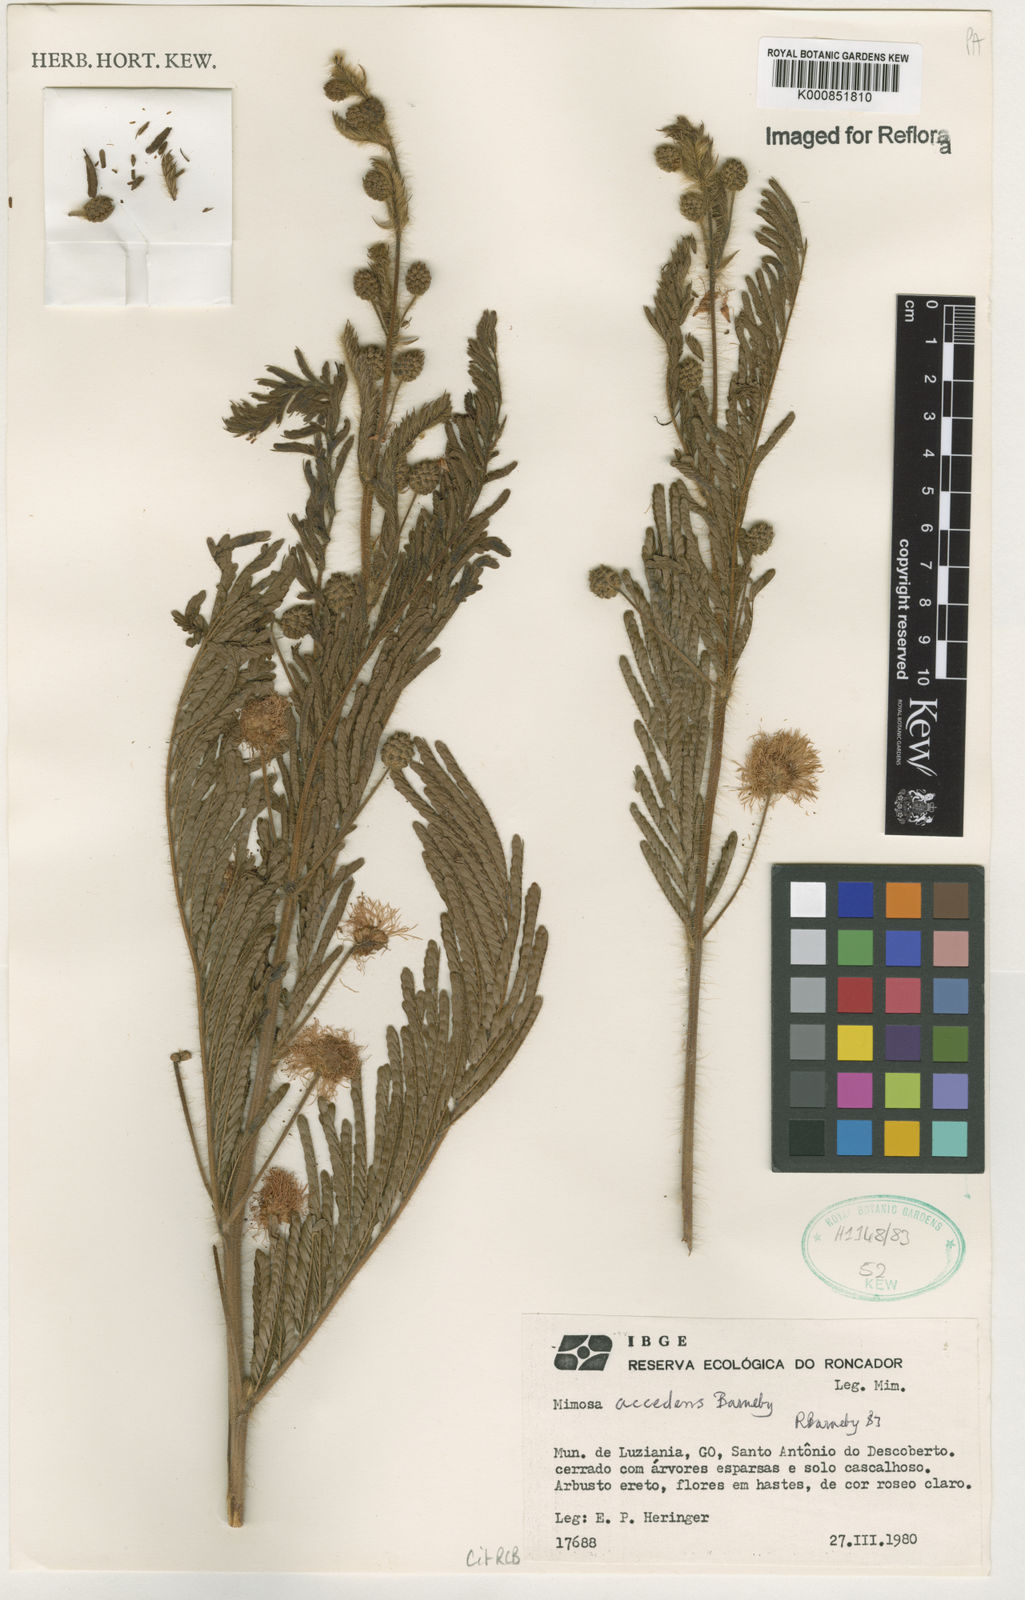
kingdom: Plantae
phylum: Tracheophyta
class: Magnoliopsida
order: Fabales
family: Fabaceae
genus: Mimosa
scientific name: Mimosa accedens
